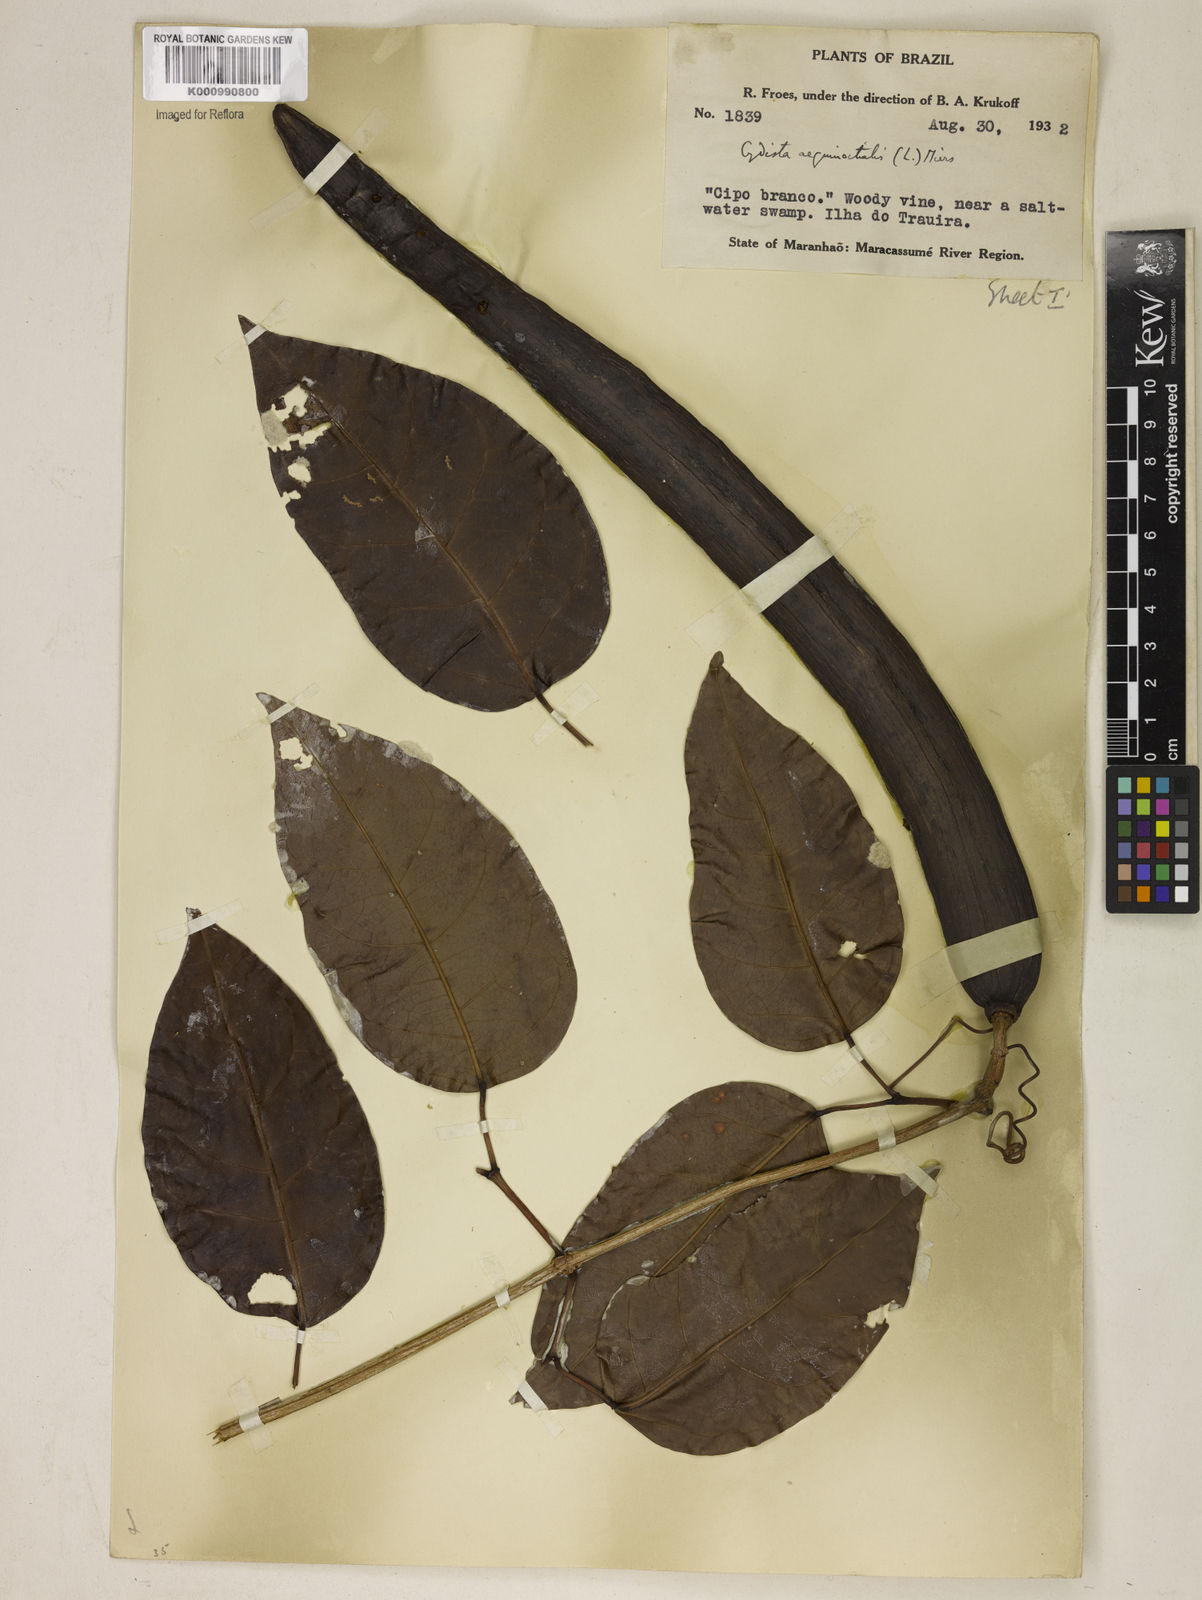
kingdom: Plantae
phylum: Tracheophyta
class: Magnoliopsida
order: Lamiales
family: Bignoniaceae
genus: Bignonia
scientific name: Bignonia aequinoctialis
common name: Garlicvine
